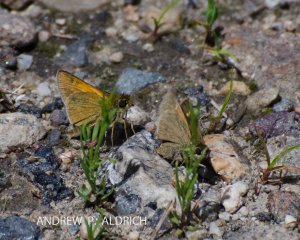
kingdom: Animalia
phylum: Arthropoda
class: Insecta
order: Lepidoptera
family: Hesperiidae
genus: Polites
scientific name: Polites themistocles
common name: Tawny-edged Skipper
